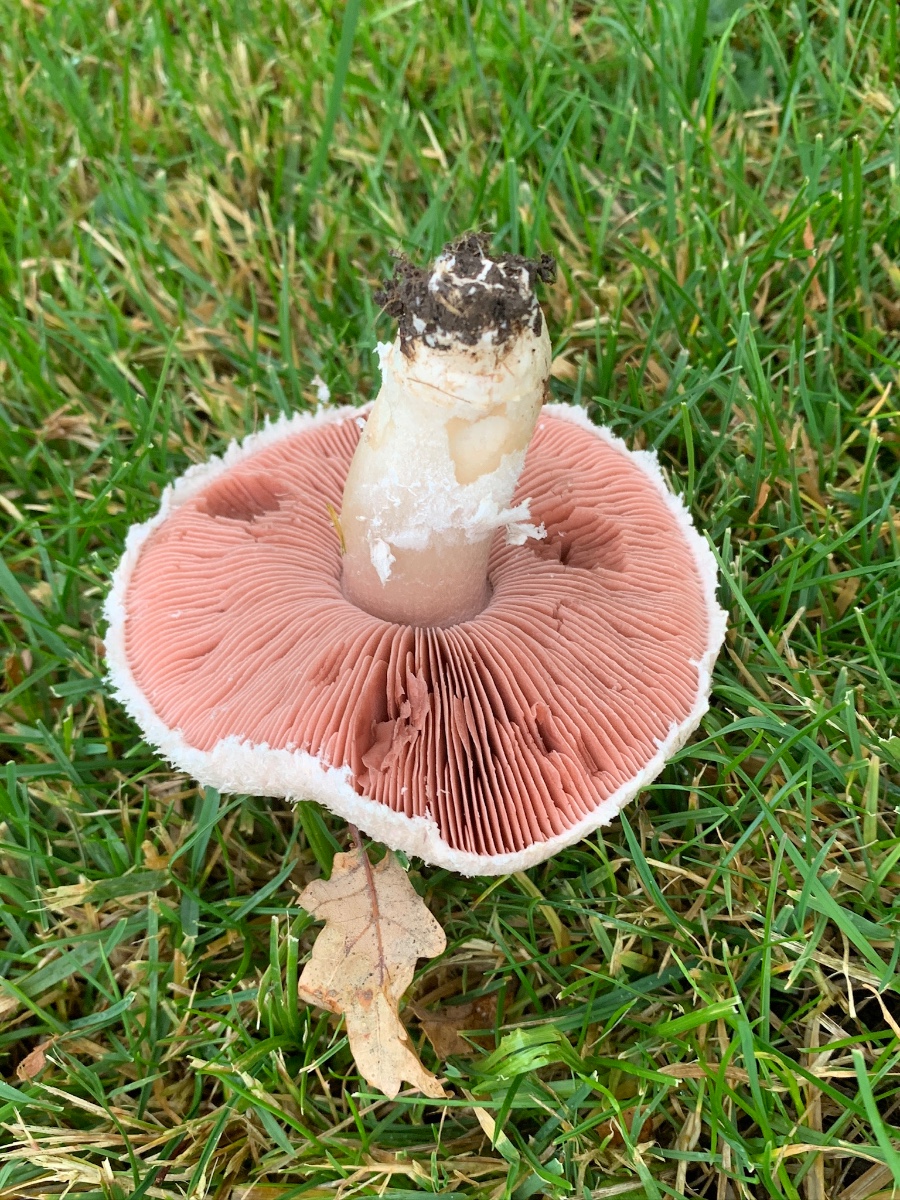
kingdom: Fungi
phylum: Basidiomycota
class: Agaricomycetes
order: Agaricales
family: Agaricaceae
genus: Agaricus
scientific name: Agaricus campestris
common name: mark-champignon
